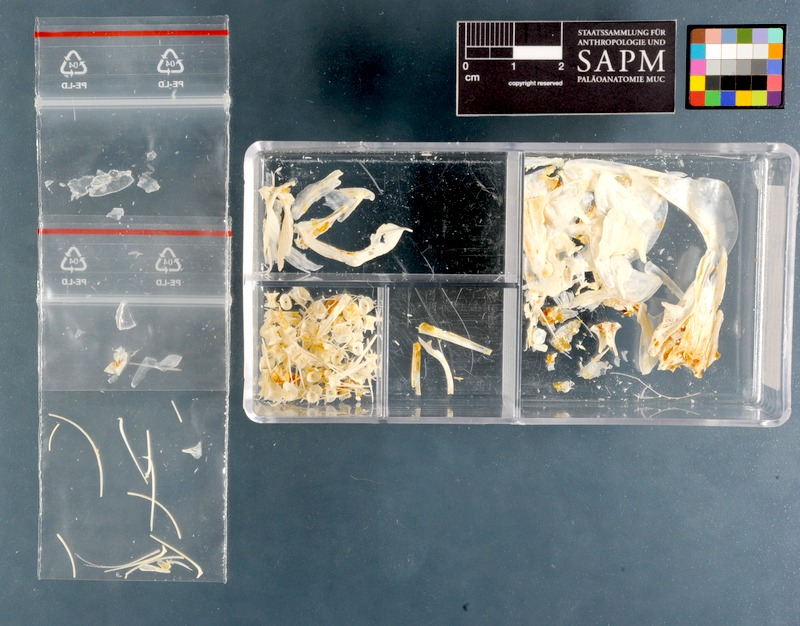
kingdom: Animalia
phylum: Chordata
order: Clupeiformes
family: Clupeidae
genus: Sardinops
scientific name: Sardinops sagax
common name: Pilchard
